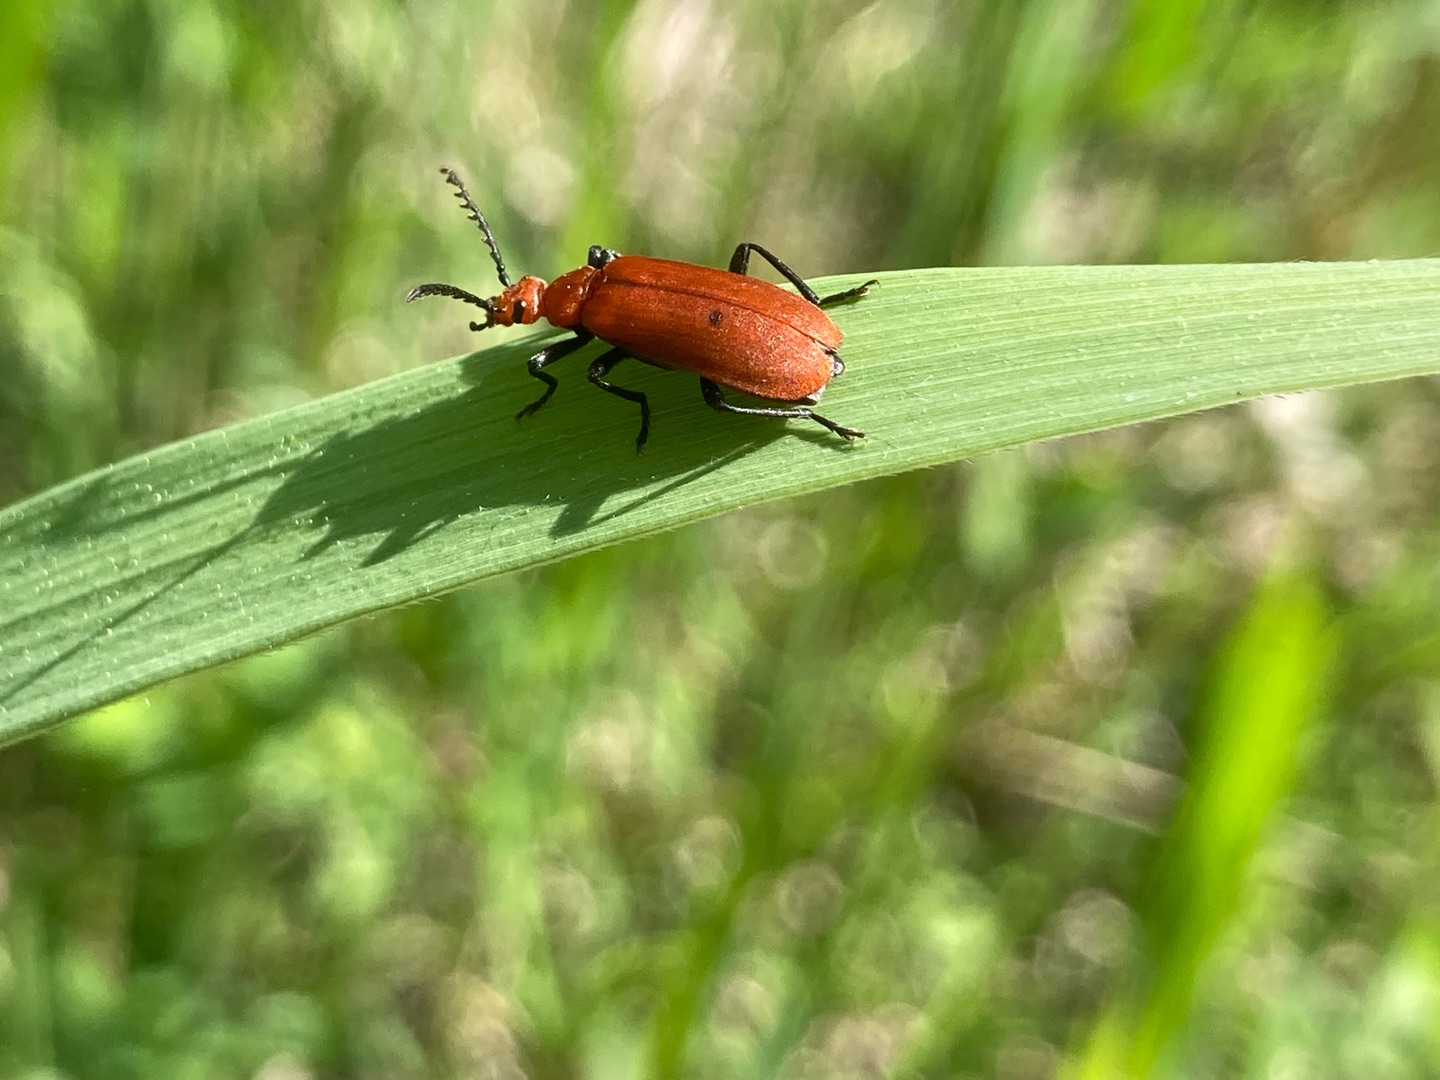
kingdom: Animalia
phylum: Arthropoda
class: Insecta
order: Coleoptera
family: Pyrochroidae
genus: Pyrochroa
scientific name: Pyrochroa serraticornis
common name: Rødhovedet kardinalbille
